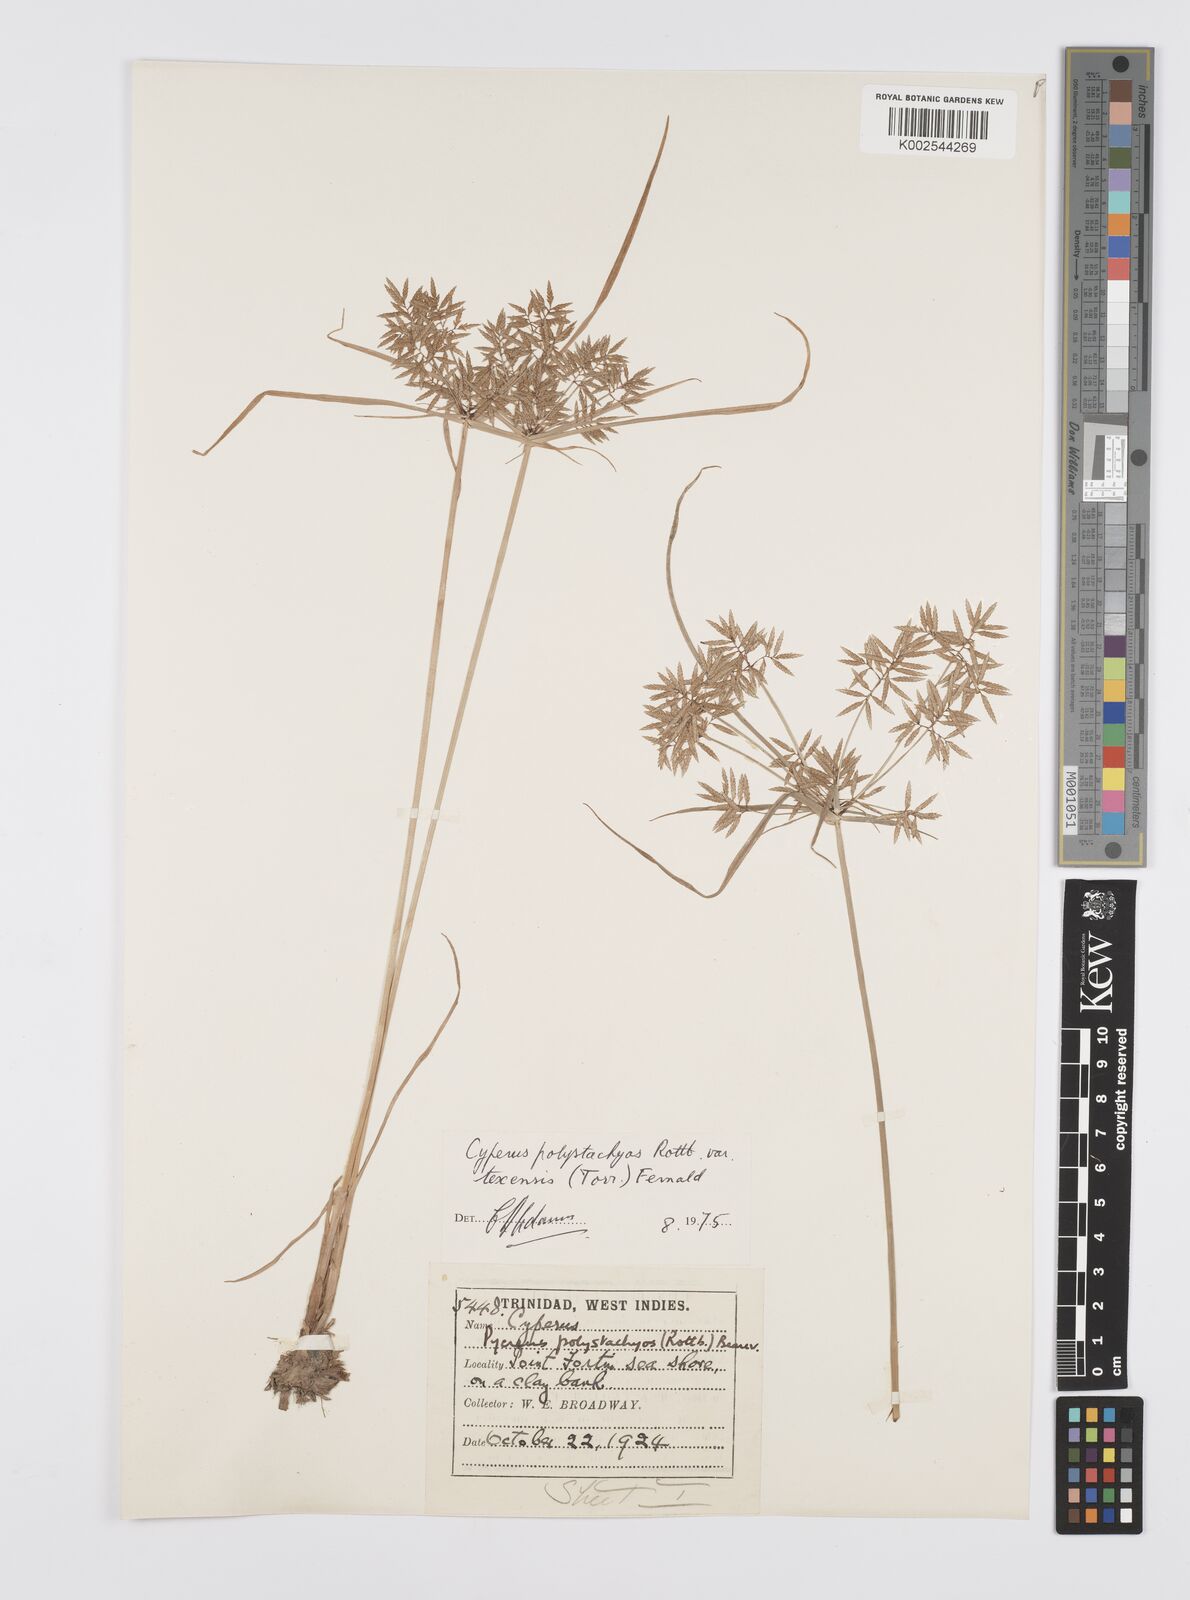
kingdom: Plantae
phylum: Tracheophyta
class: Liliopsida
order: Poales
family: Cyperaceae
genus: Cyperus
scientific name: Cyperus polystachyos
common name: Bunchy flat sedge
